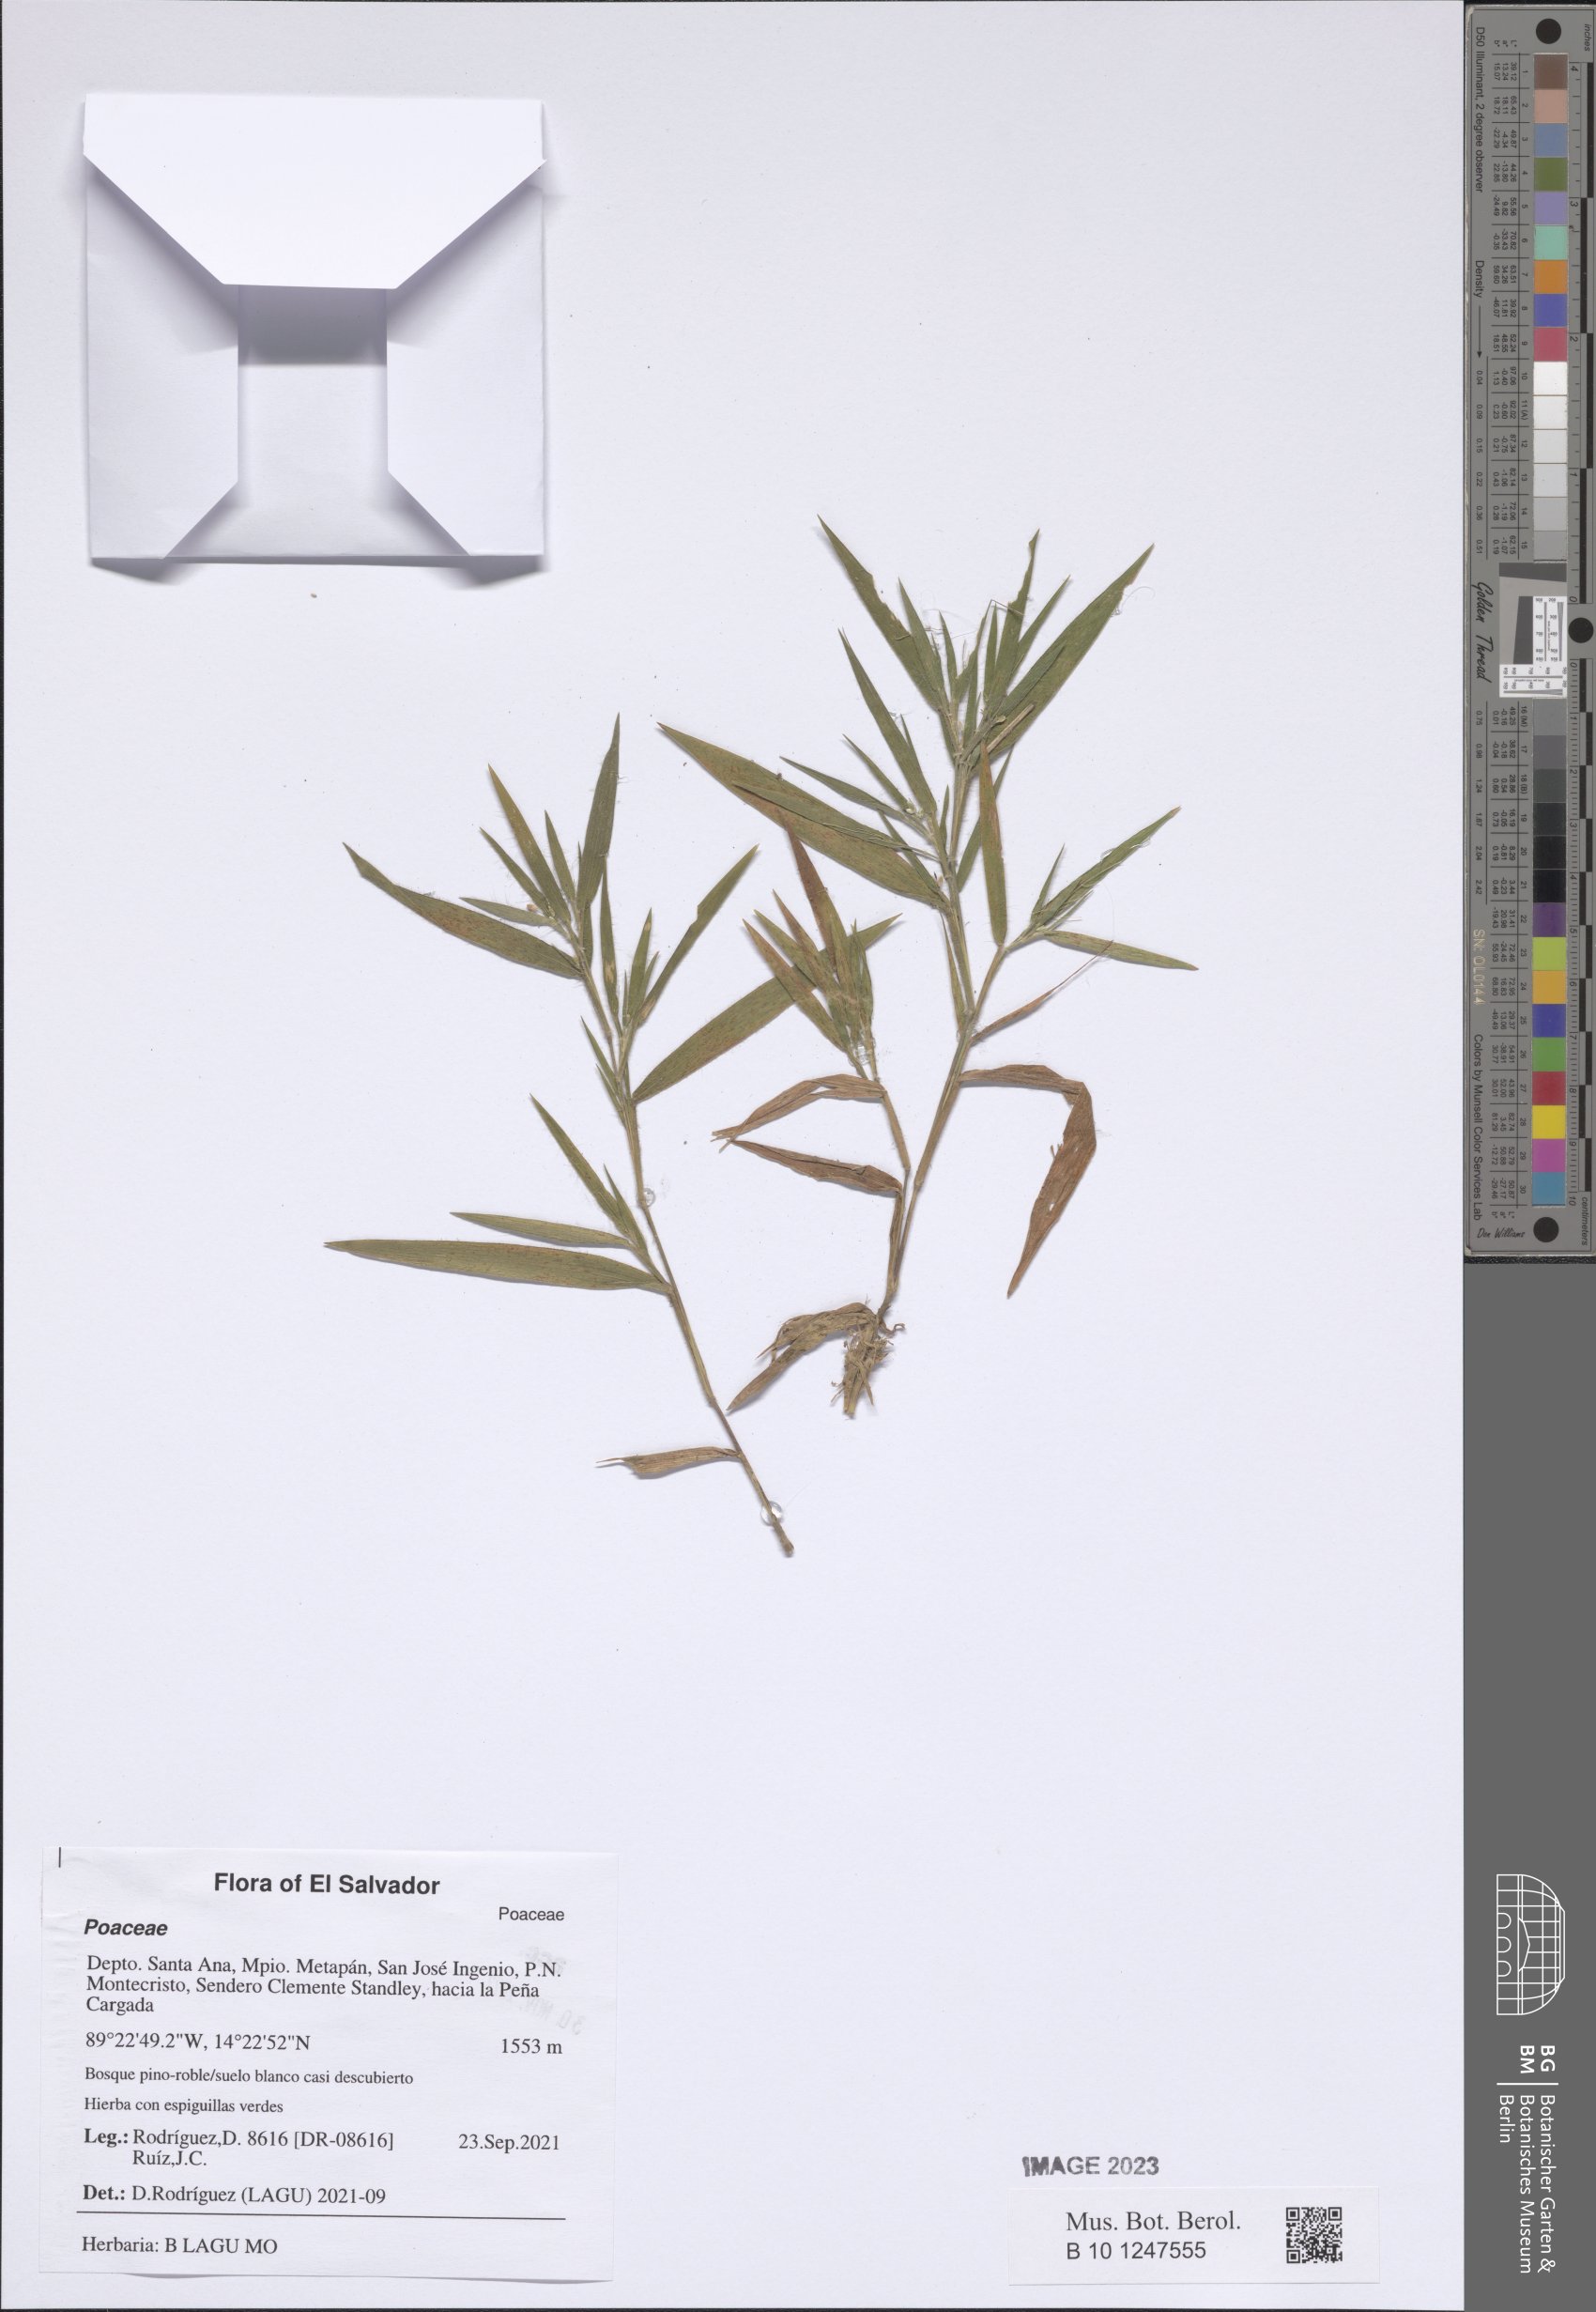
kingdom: Plantae
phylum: Tracheophyta
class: Liliopsida
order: Poales
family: Poaceae
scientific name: Poaceae
